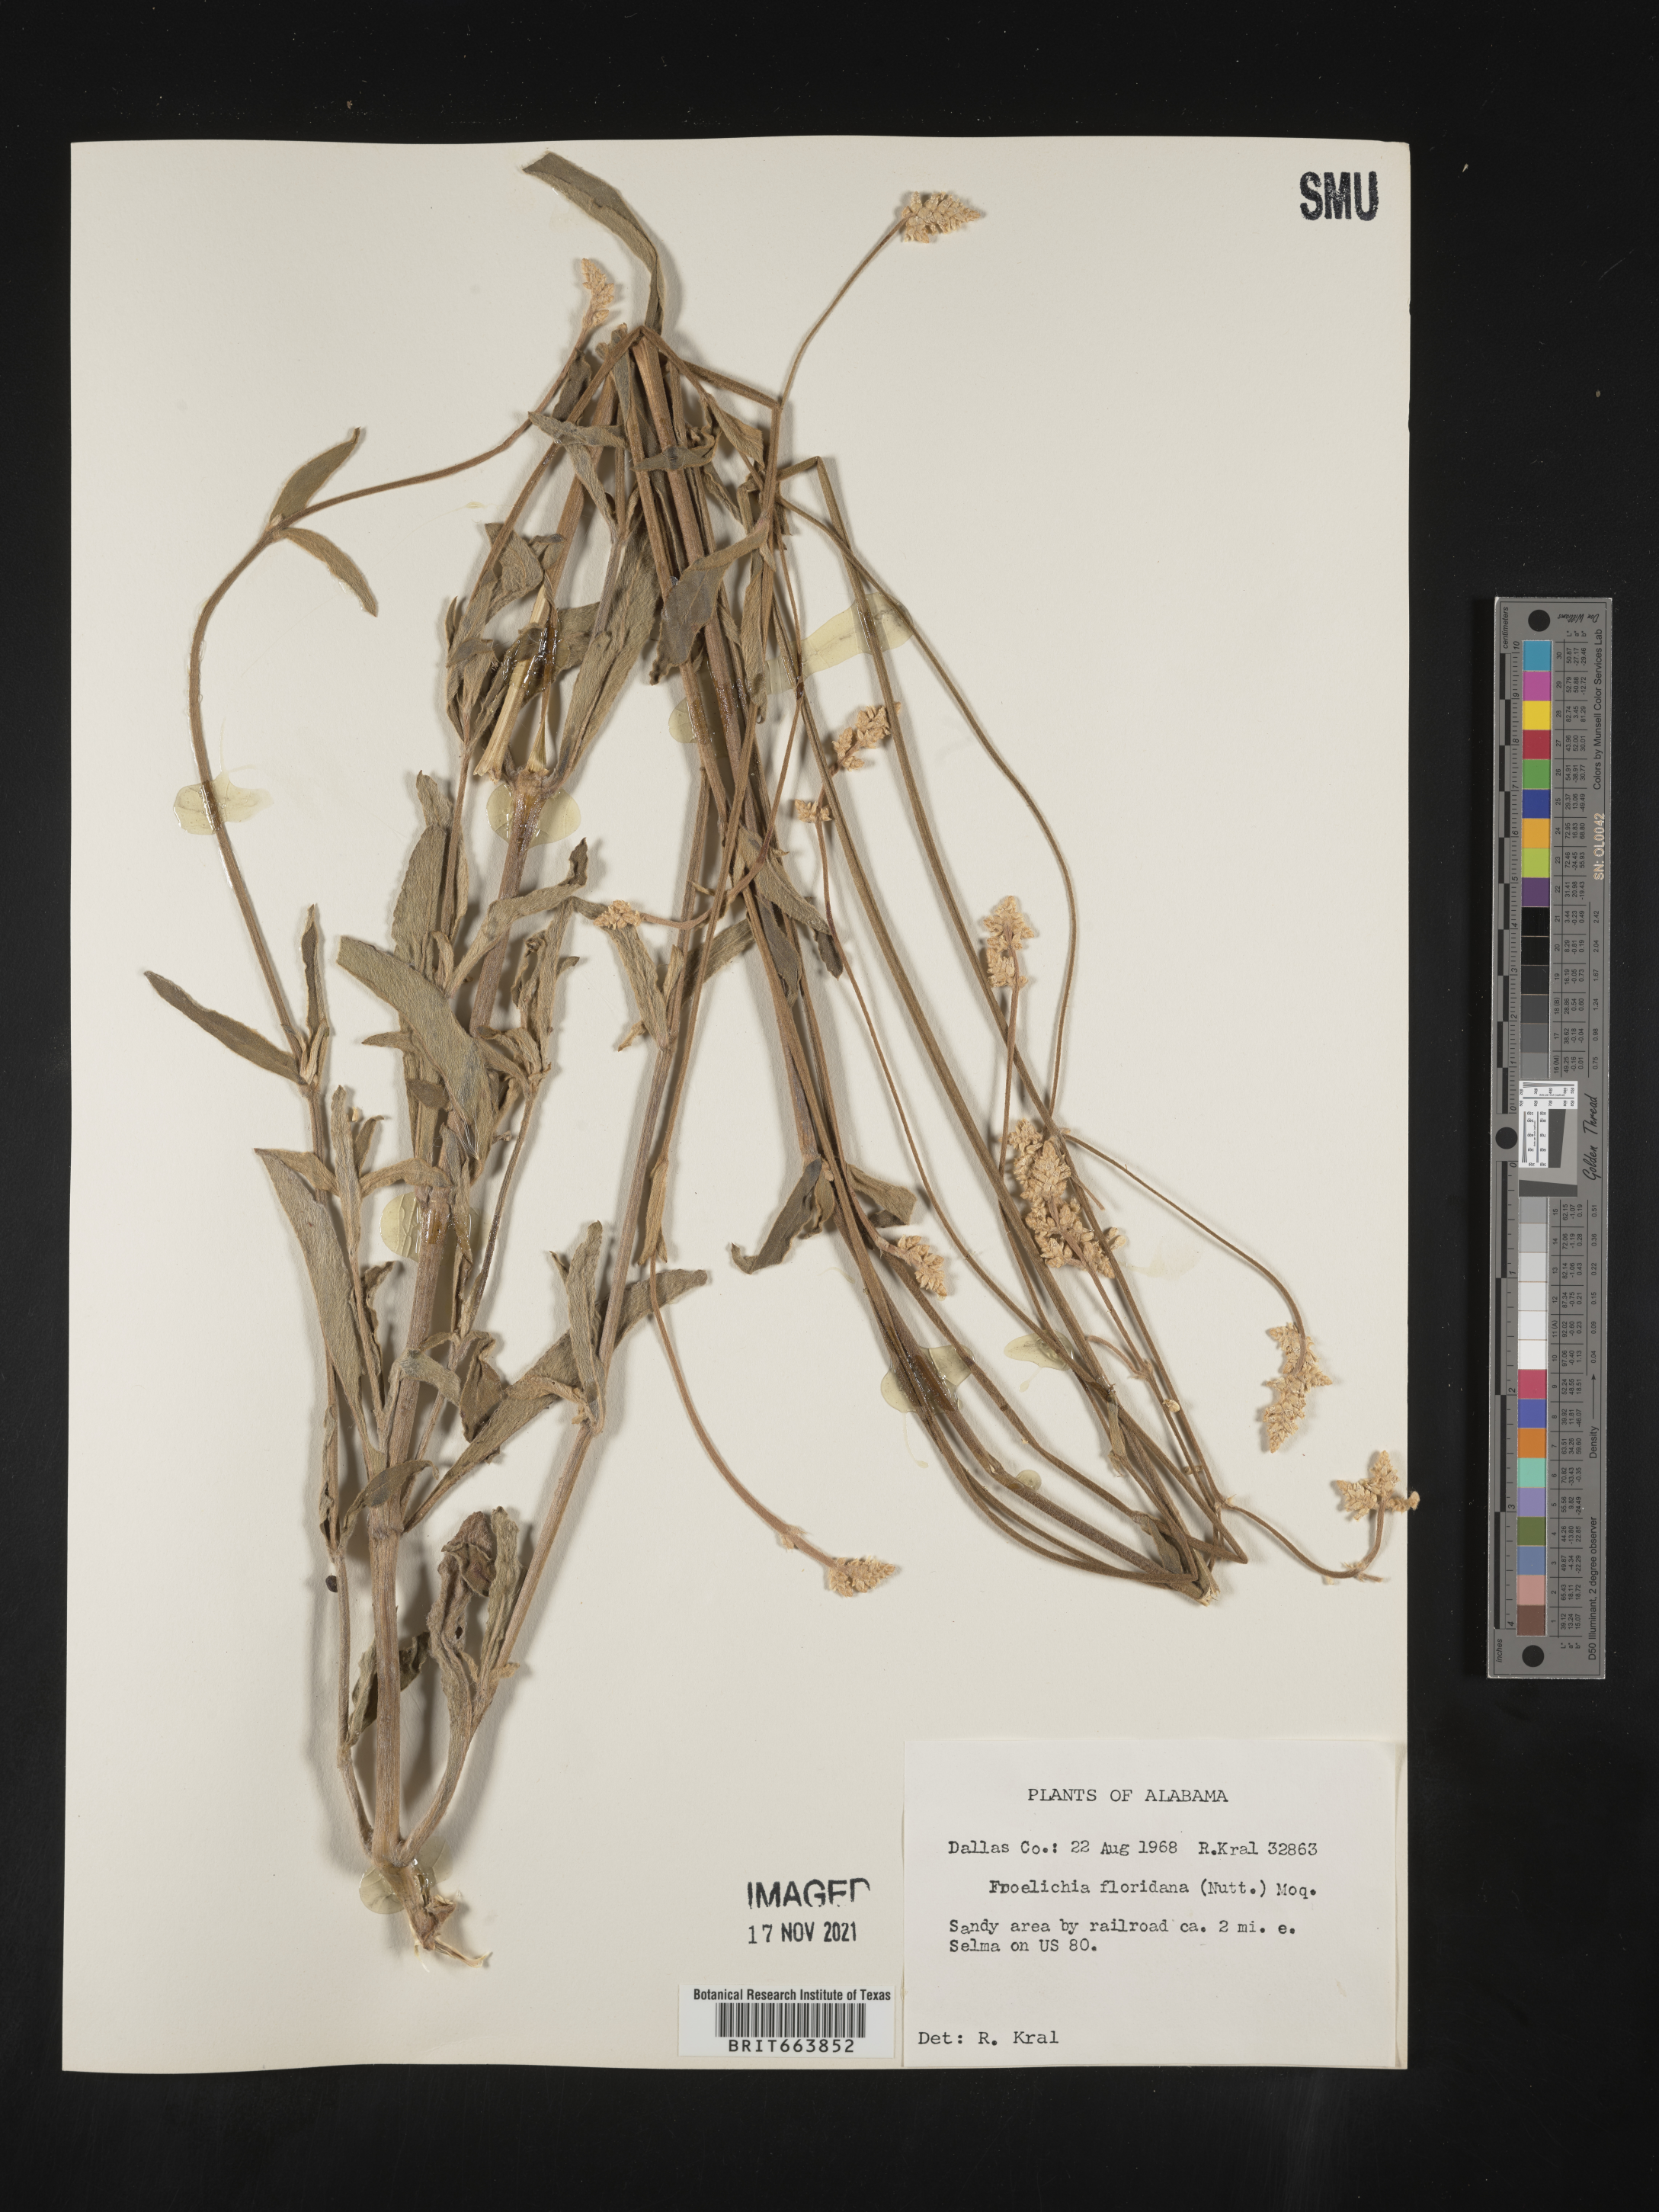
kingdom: Plantae
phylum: Tracheophyta
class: Magnoliopsida
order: Caryophyllales
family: Amaranthaceae
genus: Froelichia
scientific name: Froelichia floridana
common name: Florida snake-cotton
